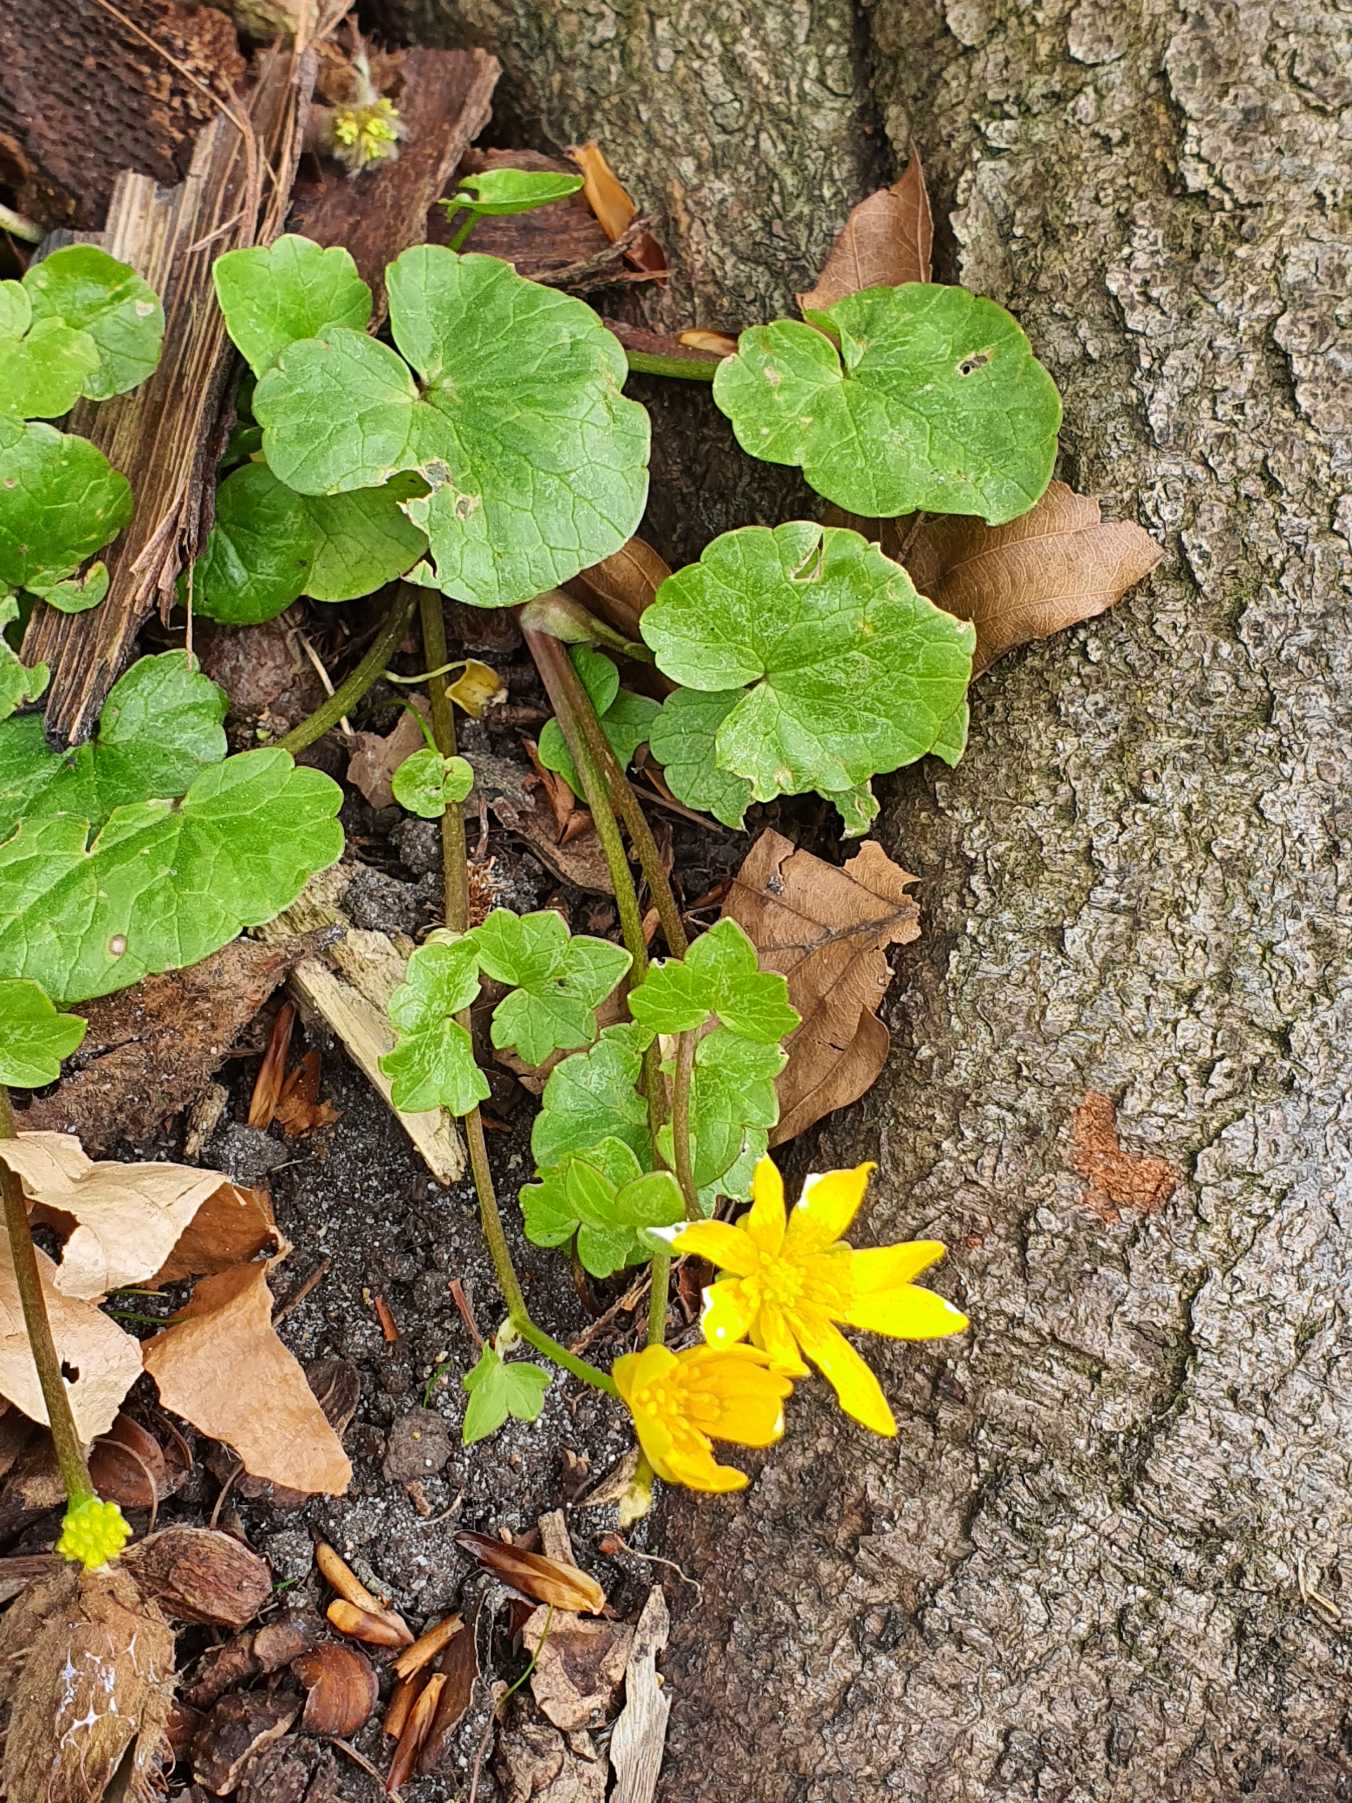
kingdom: Plantae
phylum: Tracheophyta
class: Magnoliopsida
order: Ranunculales
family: Ranunculaceae
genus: Ficaria
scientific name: Ficaria verna
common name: Vorterod
